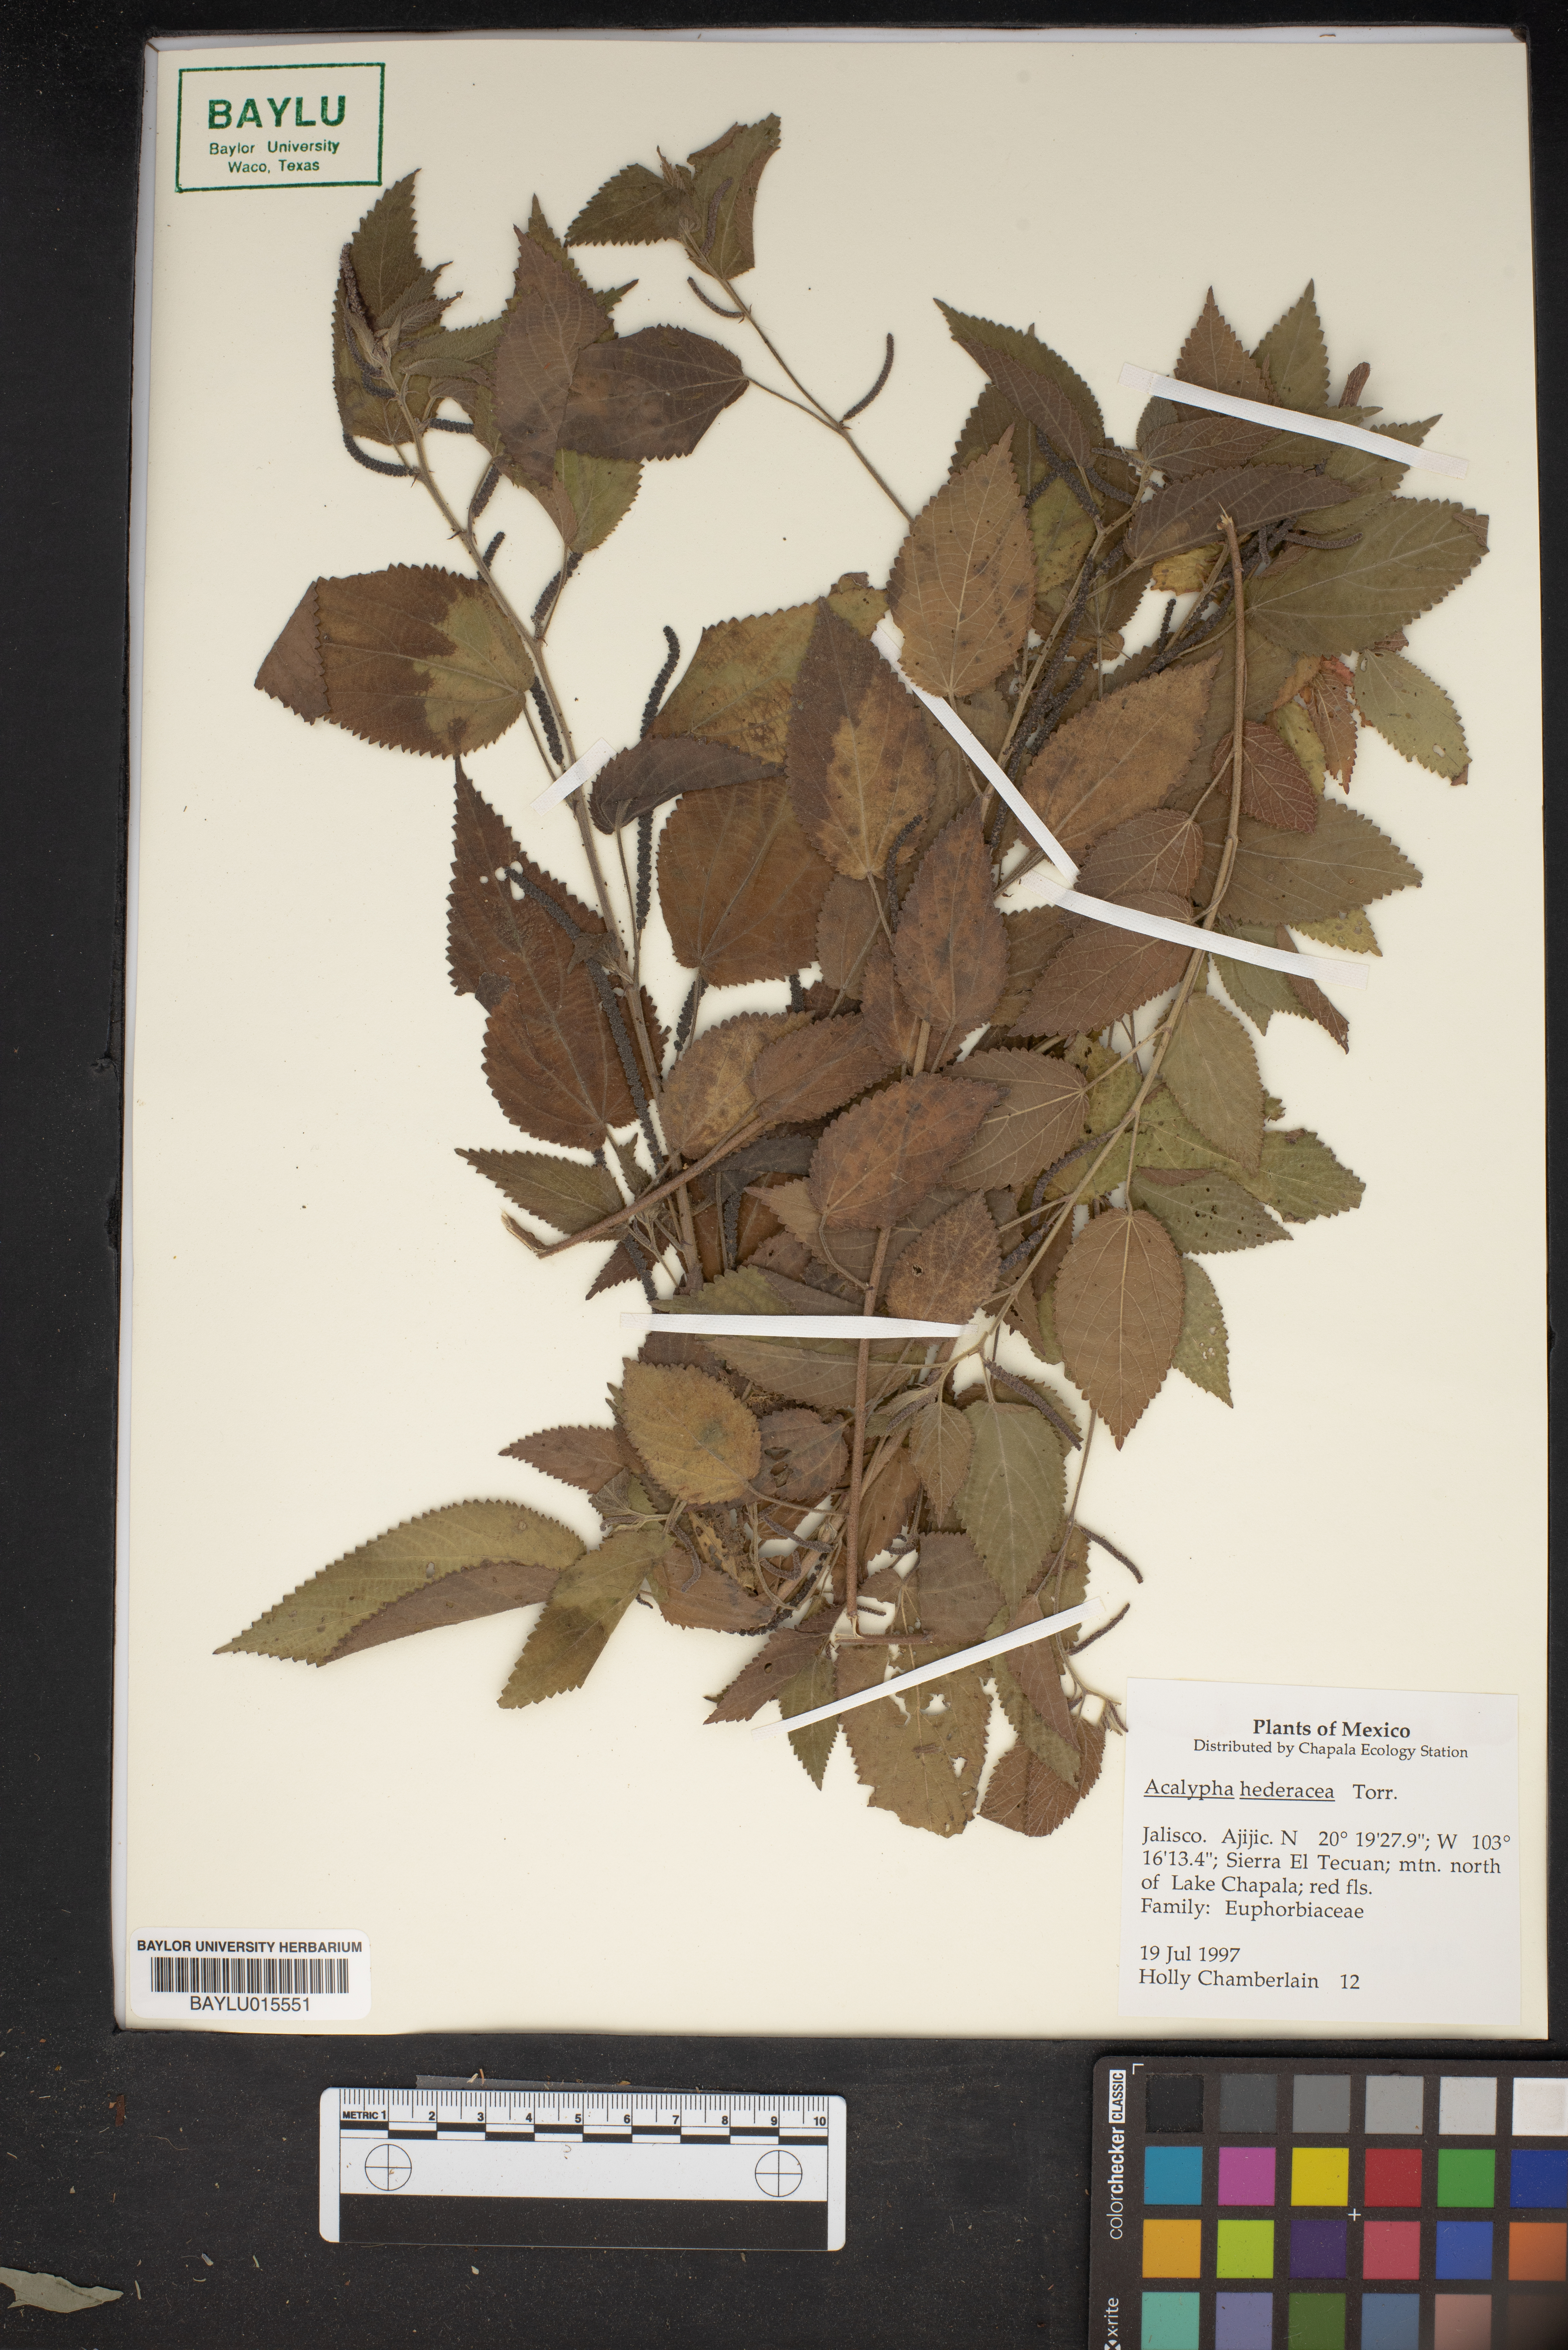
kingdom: Plantae
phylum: Tracheophyta
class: Magnoliopsida
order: Malpighiales
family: Euphorbiaceae
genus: Acalypha
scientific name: Acalypha monostachya
